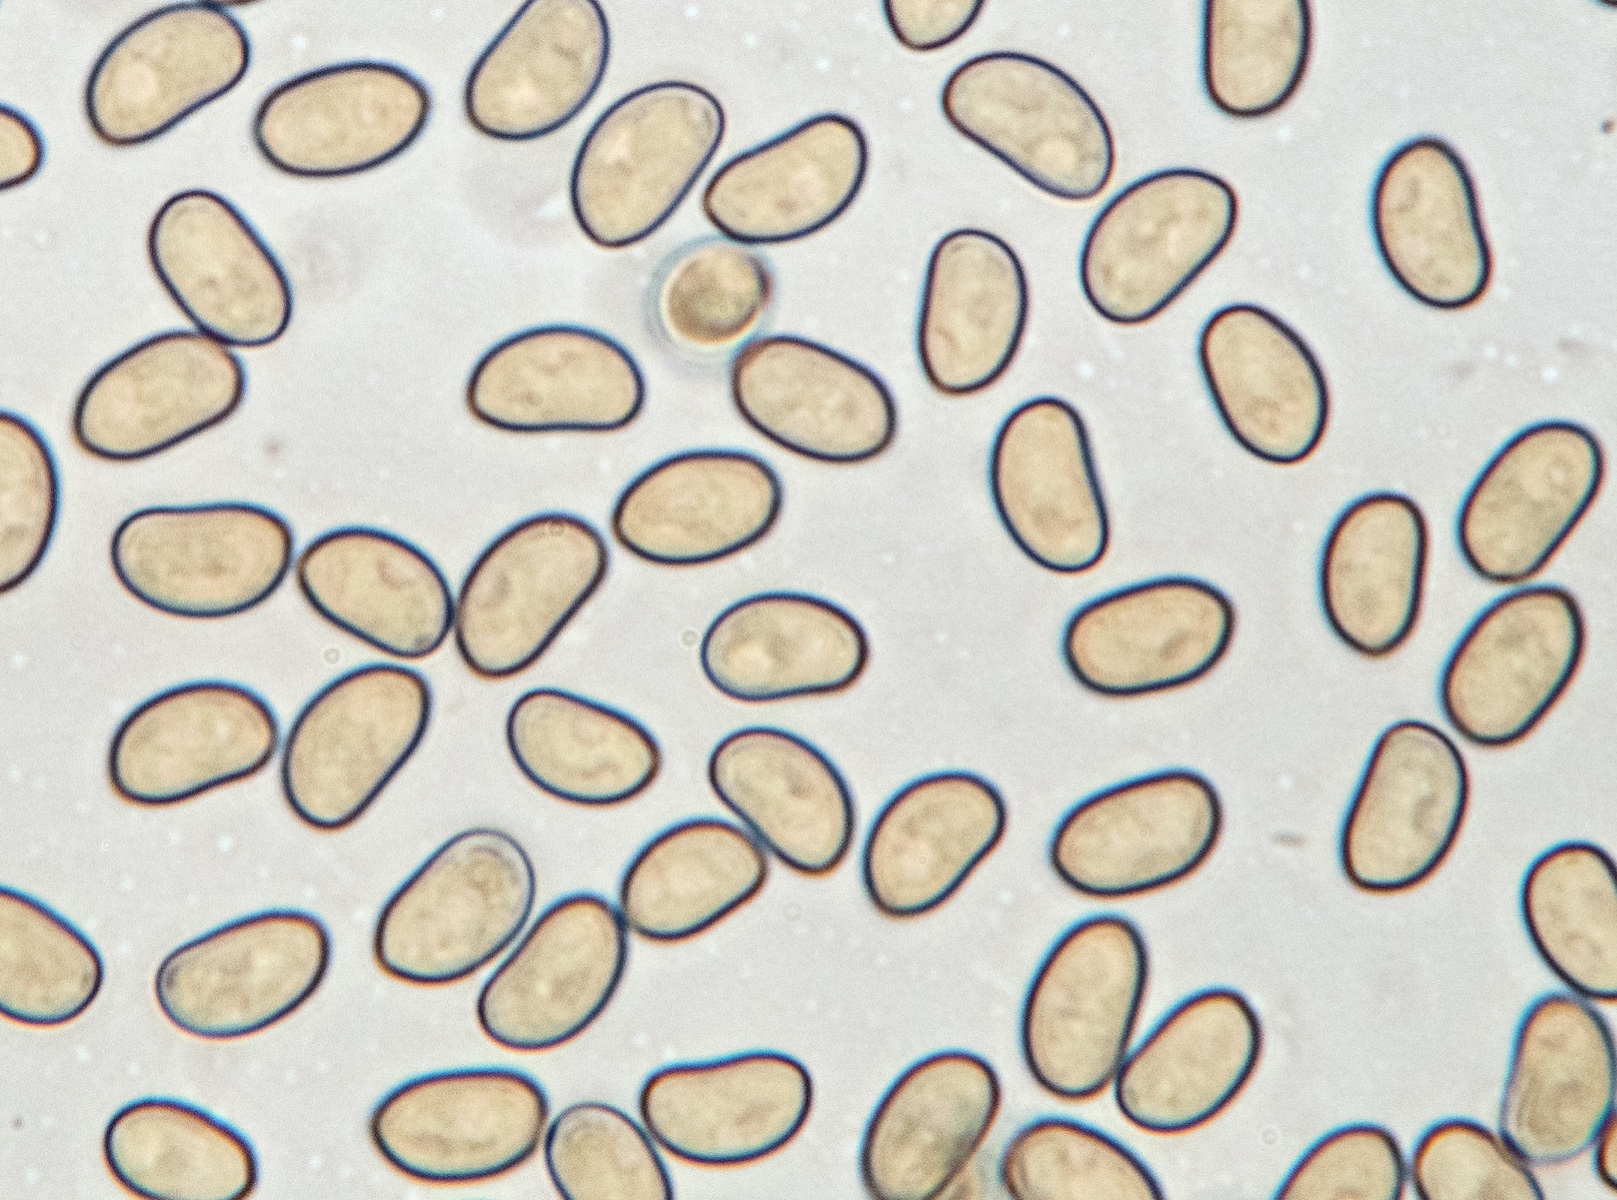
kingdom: Fungi
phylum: Basidiomycota
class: Agaricomycetes
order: Agaricales
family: Crepidotaceae
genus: Simocybe
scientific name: Simocybe sumptuosa
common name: stor skyggehat
